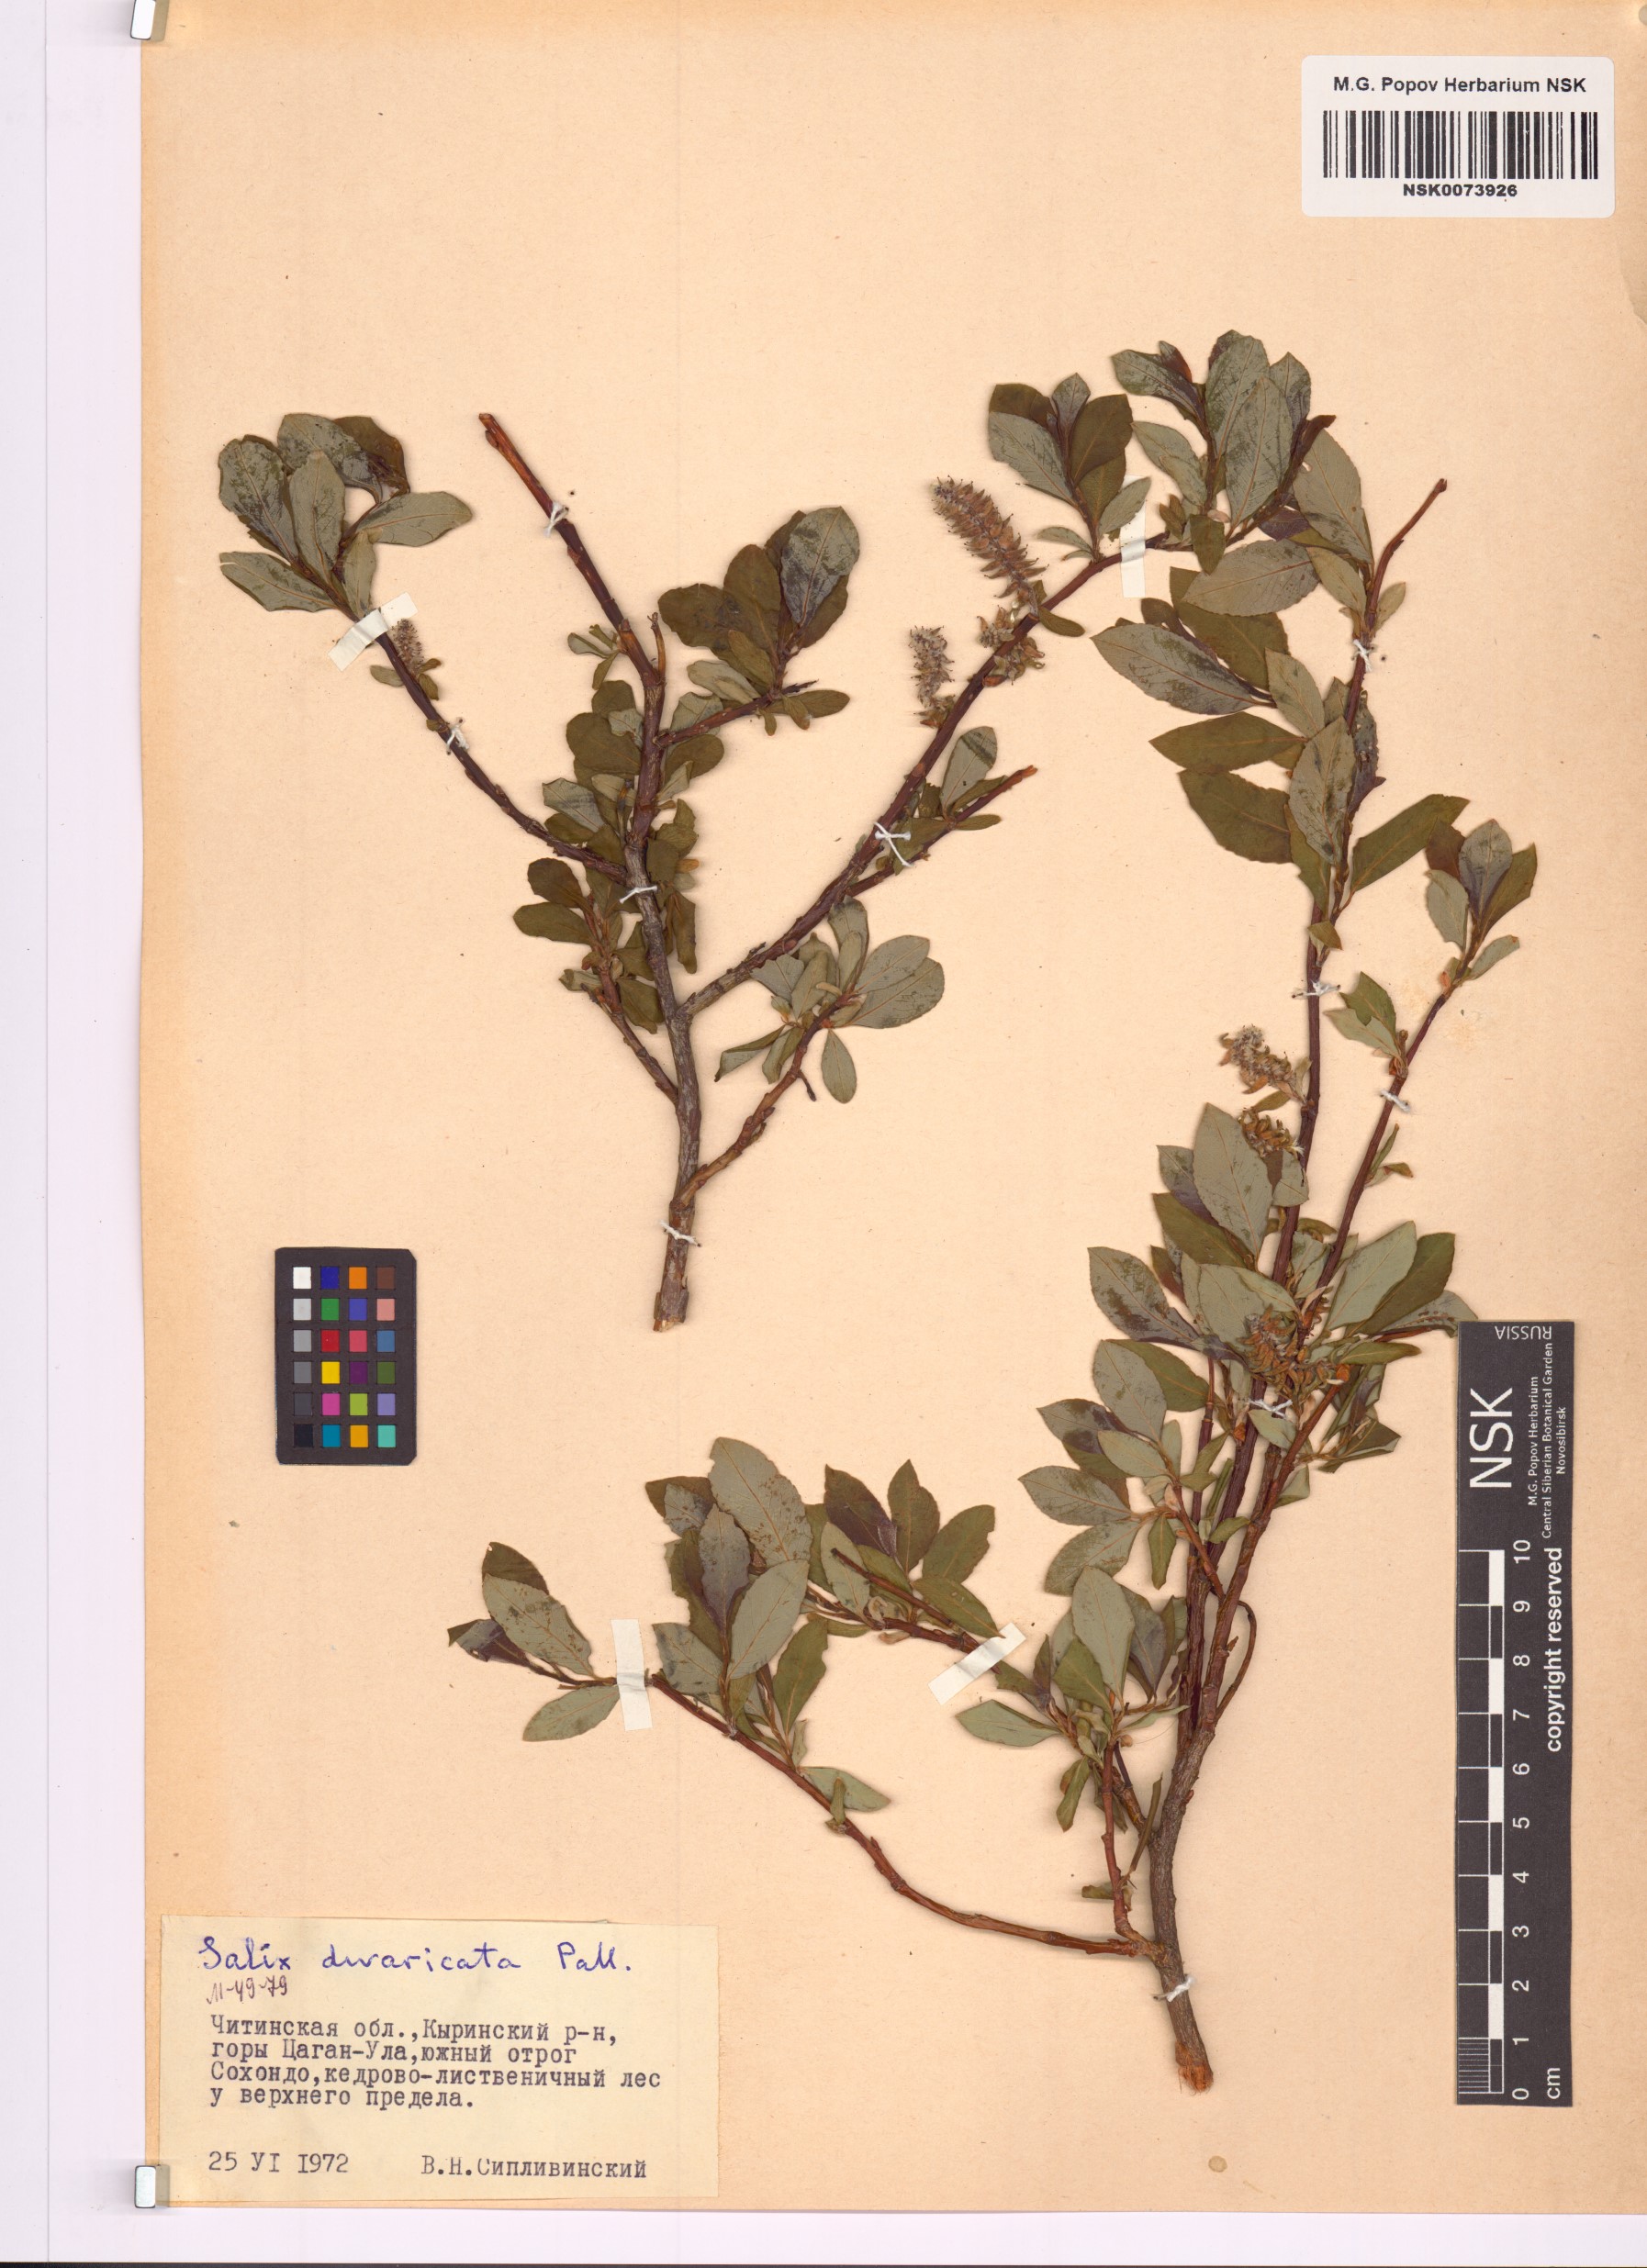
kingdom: Plantae
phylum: Tracheophyta
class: Magnoliopsida
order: Malpighiales
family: Salicaceae
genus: Salix
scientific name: Salix divaricata
